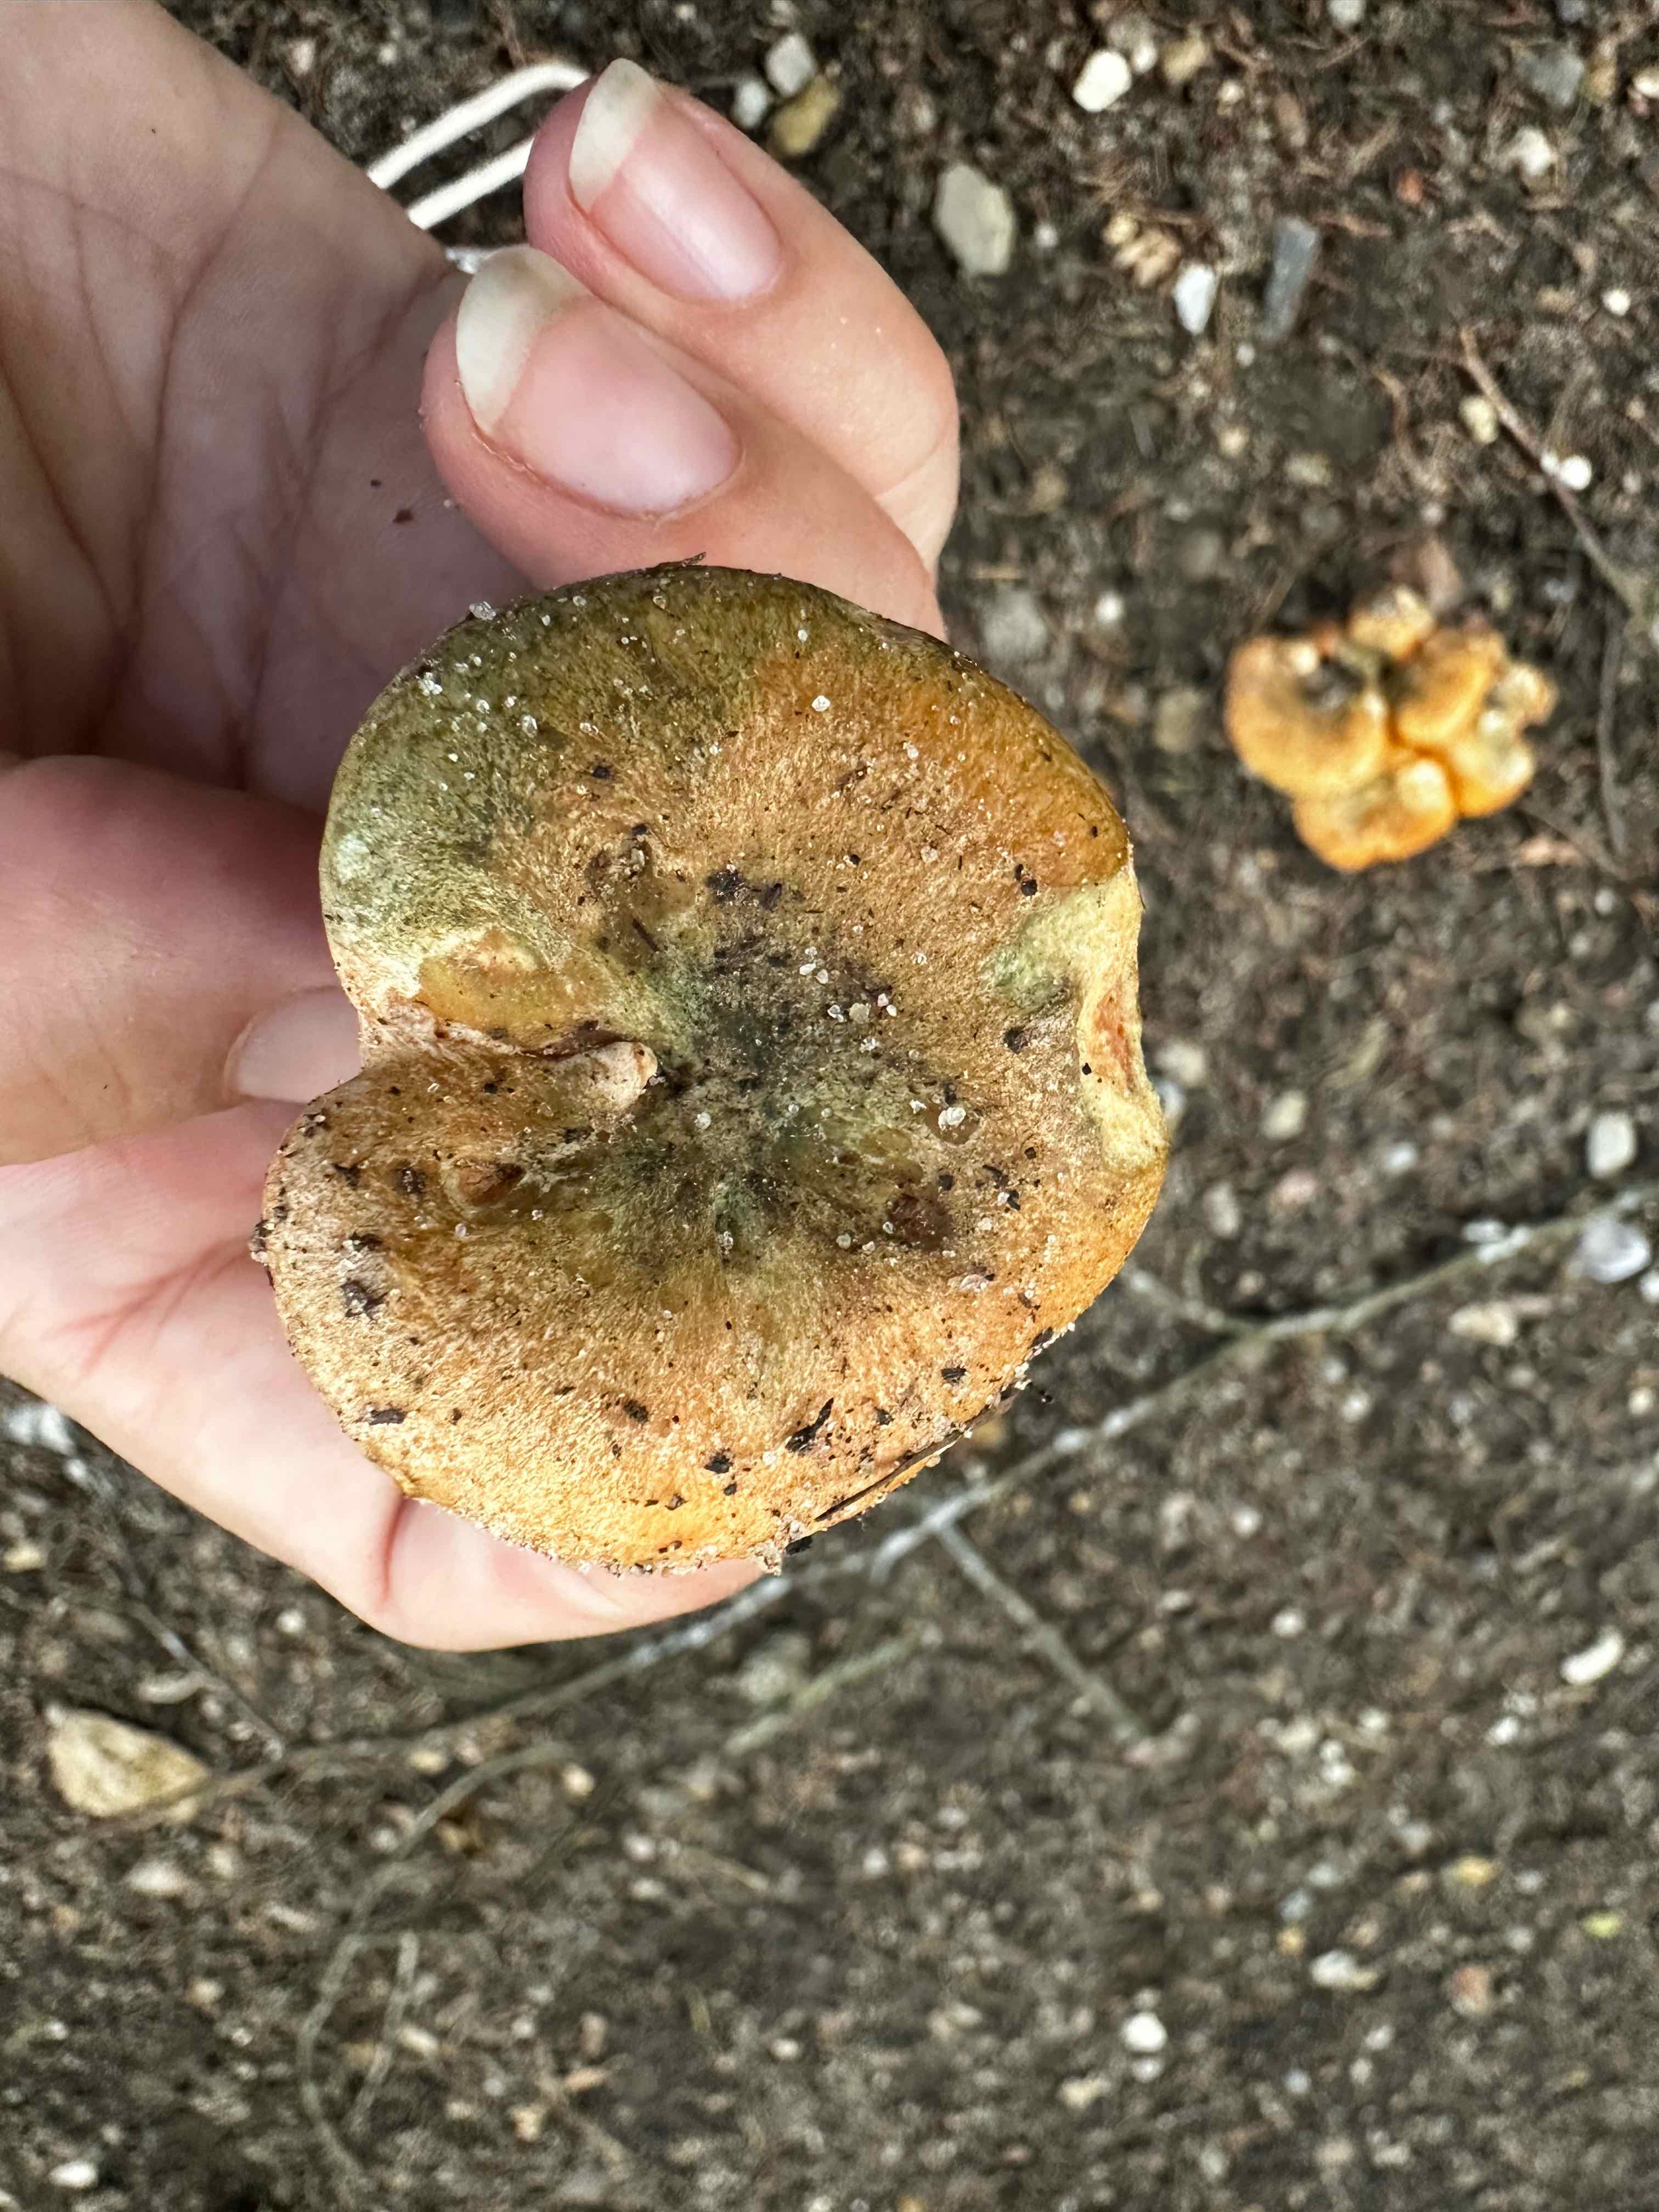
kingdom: Fungi
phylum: Basidiomycota
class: Agaricomycetes
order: Russulales
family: Russulaceae
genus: Lactarius
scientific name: Lactarius
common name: mælkehat
